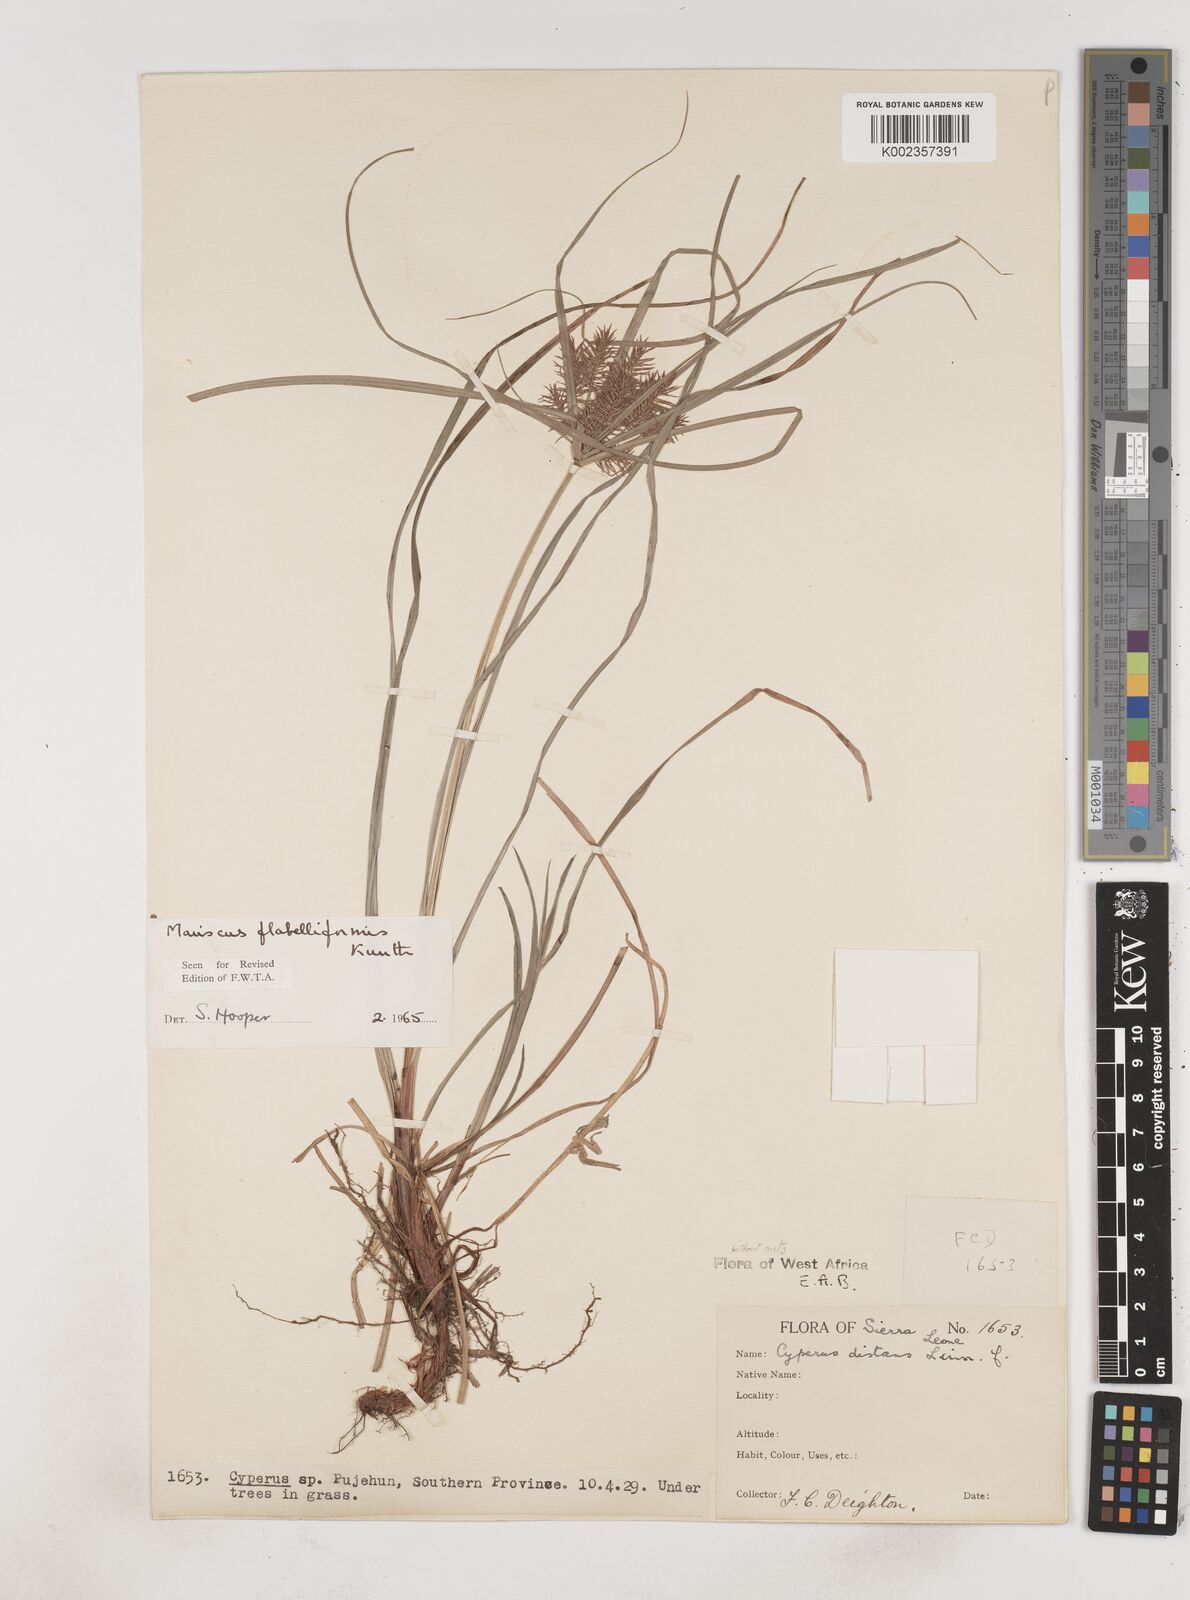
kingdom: Plantae
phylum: Tracheophyta
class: Liliopsida
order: Poales
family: Cyperaceae
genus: Cyperus
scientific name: Cyperus tenuis
